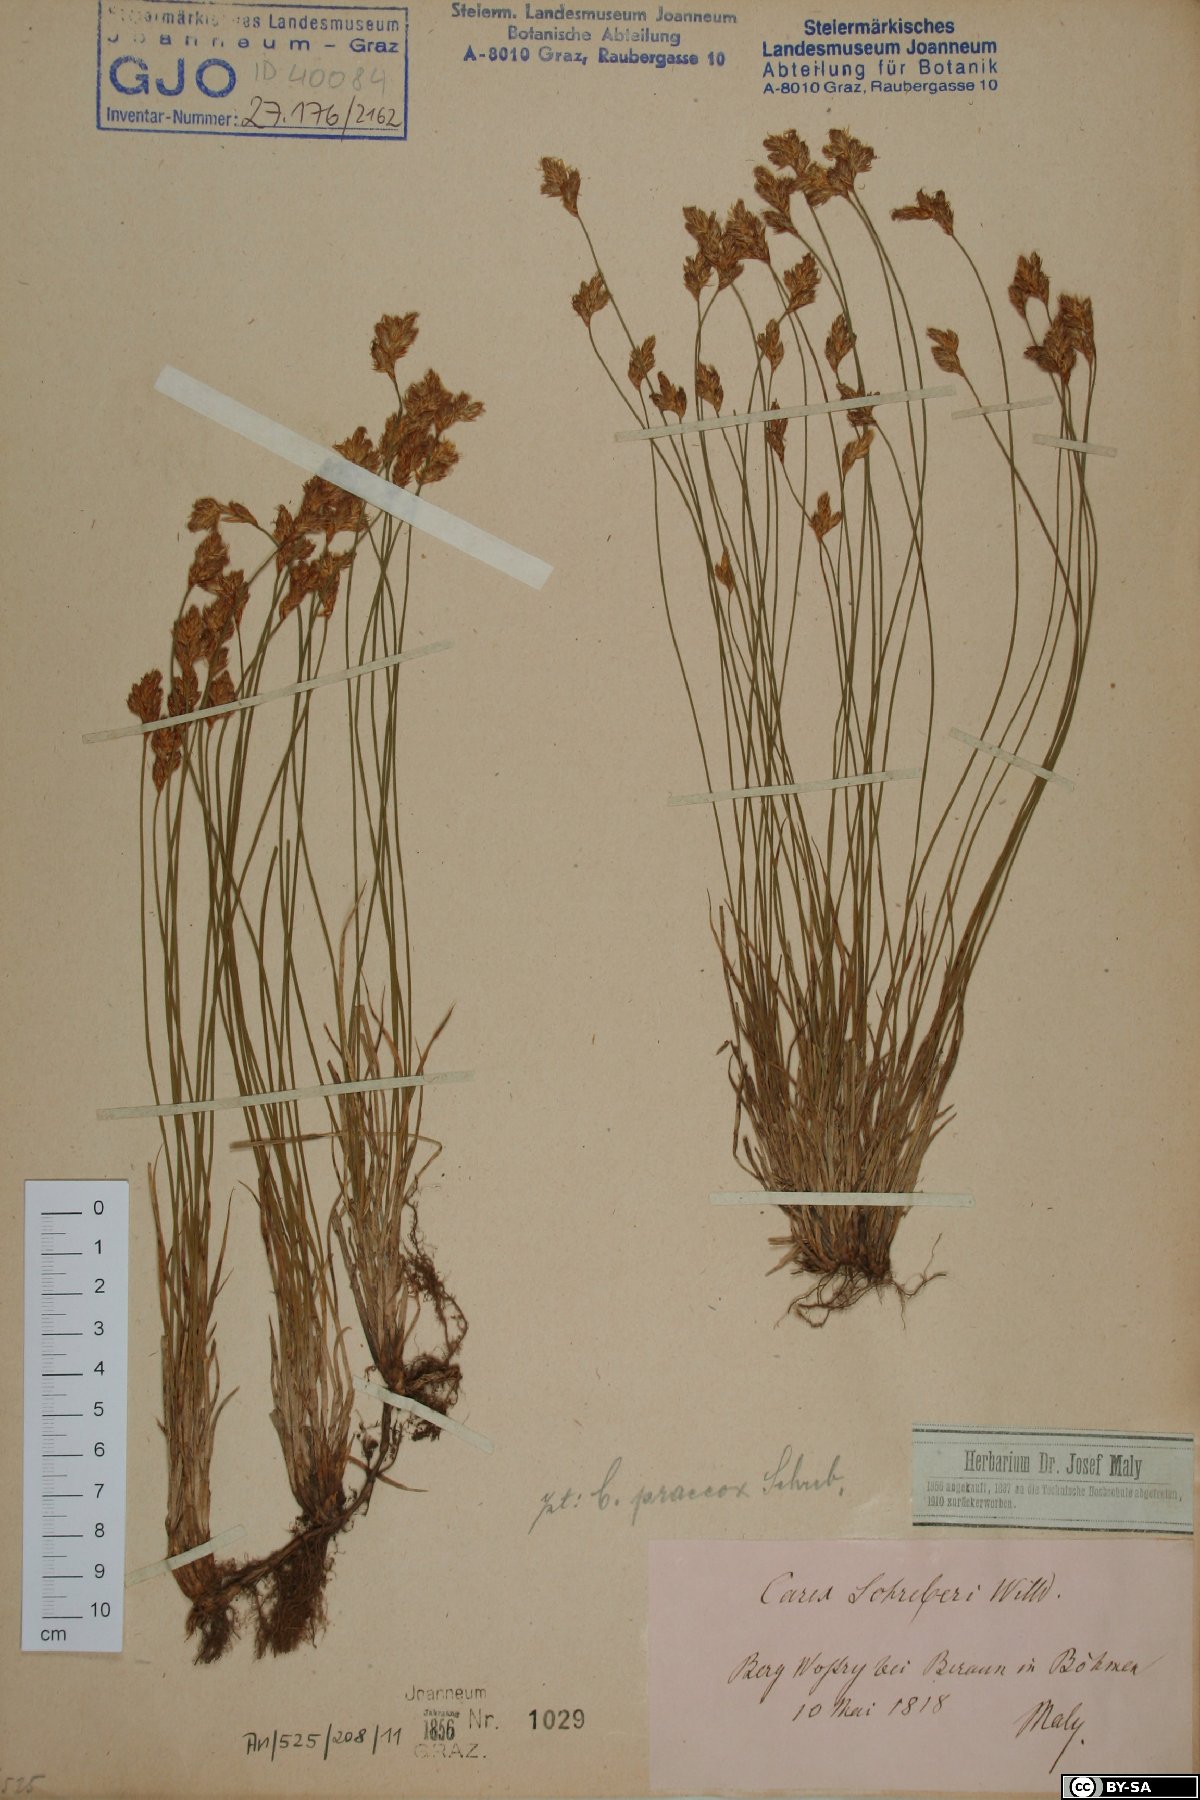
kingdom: Plantae
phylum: Tracheophyta
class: Liliopsida
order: Poales
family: Cyperaceae
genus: Carex
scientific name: Carex praecox
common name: Early sedge
